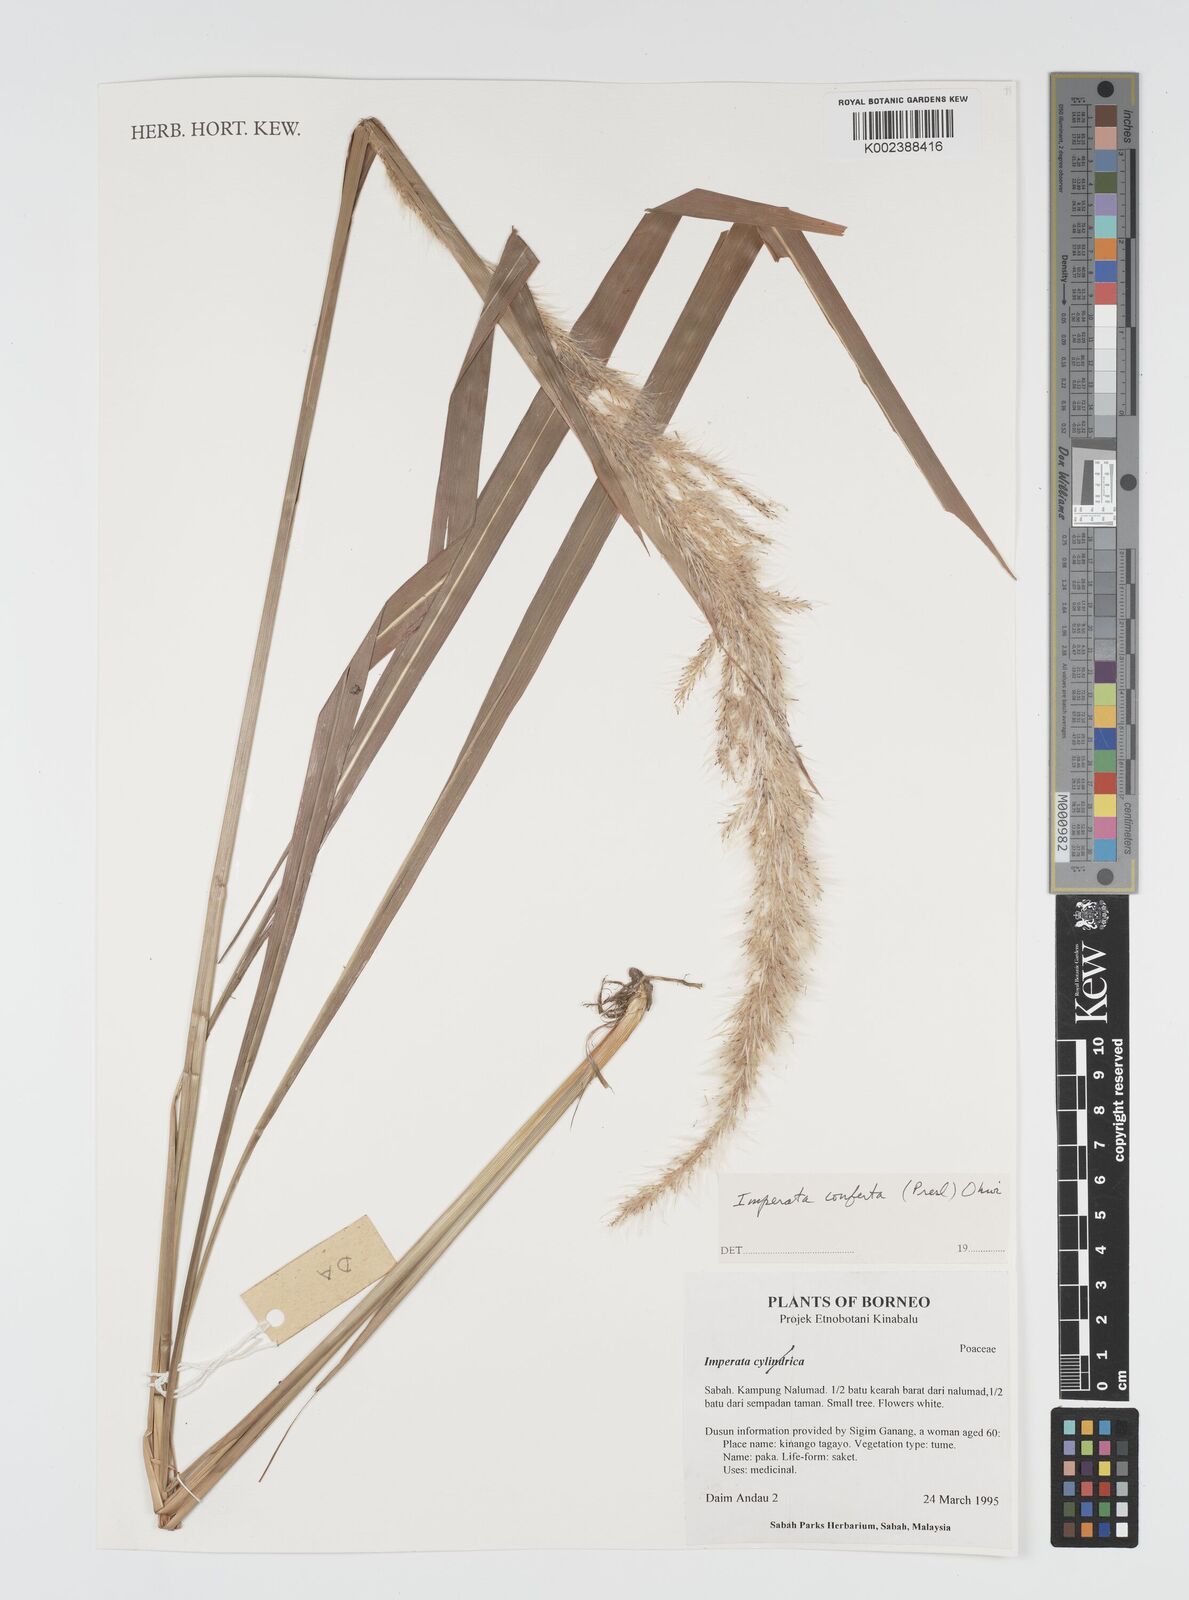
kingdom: Plantae
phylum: Tracheophyta
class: Liliopsida
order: Poales
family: Poaceae
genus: Imperata
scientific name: Imperata conferta
